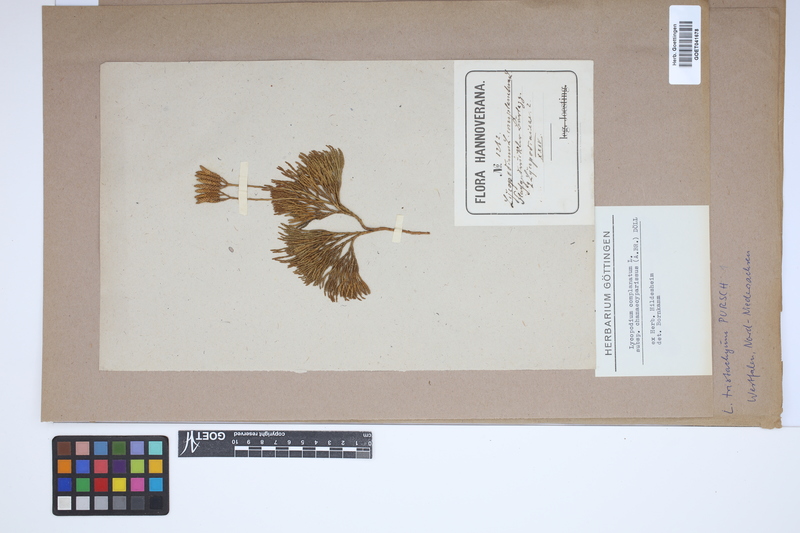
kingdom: Plantae
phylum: Tracheophyta
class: Lycopodiopsida
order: Lycopodiales
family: Lycopodiaceae
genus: Diphasiastrum
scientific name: Diphasiastrum tristachyum
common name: Blue ground-cedar
